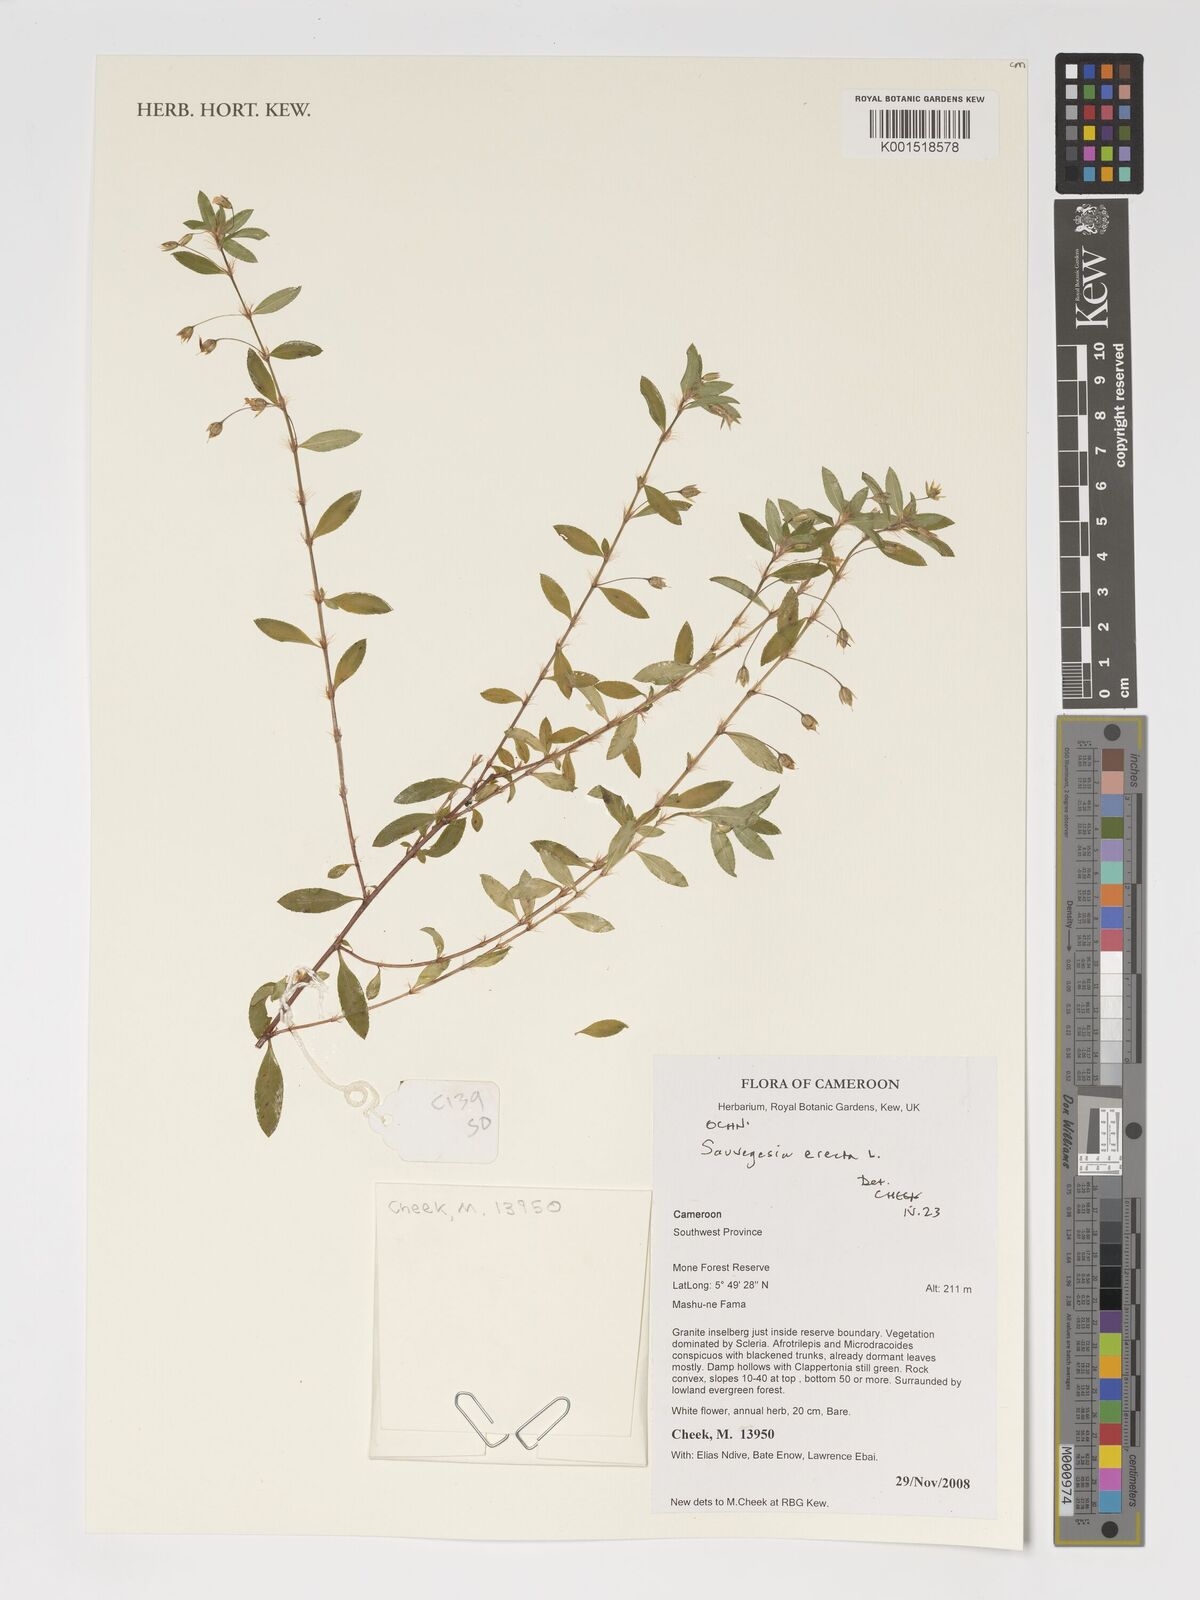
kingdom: Plantae
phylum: Tracheophyta
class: Magnoliopsida
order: Malpighiales
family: Ochnaceae
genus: Sauvagesia
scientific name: Sauvagesia erecta
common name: Creole tea
